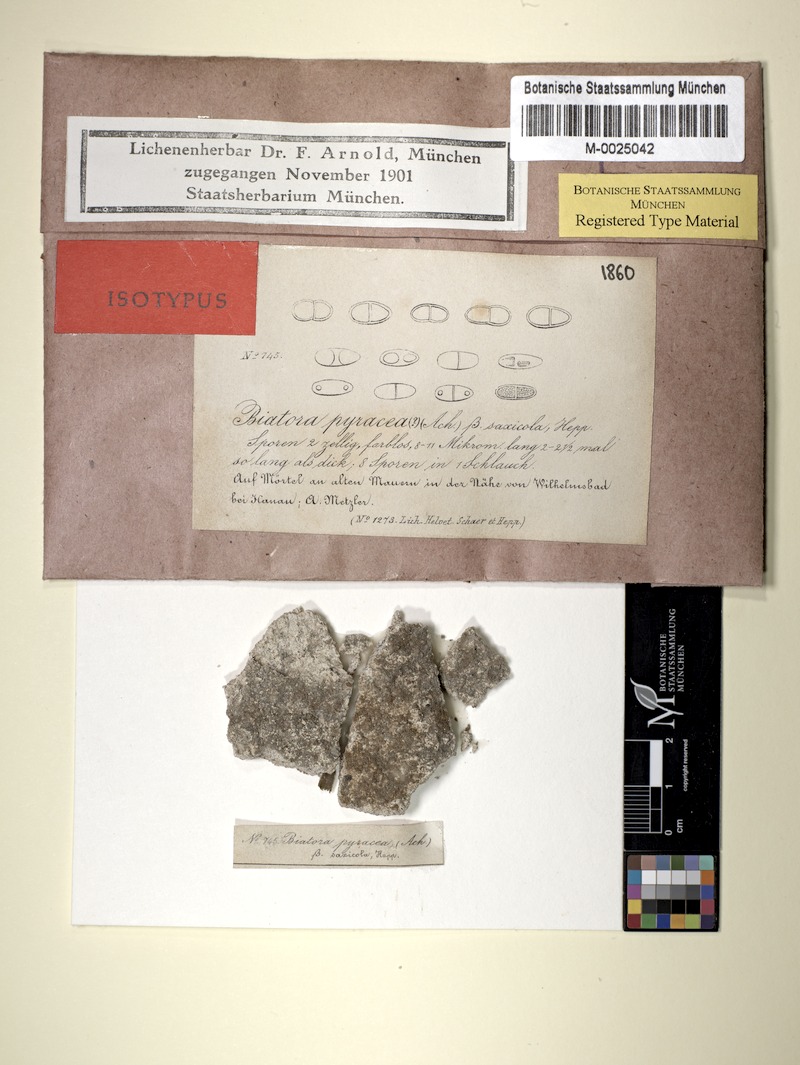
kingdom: Fungi
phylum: Ascomycota
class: Lecanoromycetes
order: Teloschistales
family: Teloschistaceae
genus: Cerothallia
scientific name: Cerothallia luteoalba
